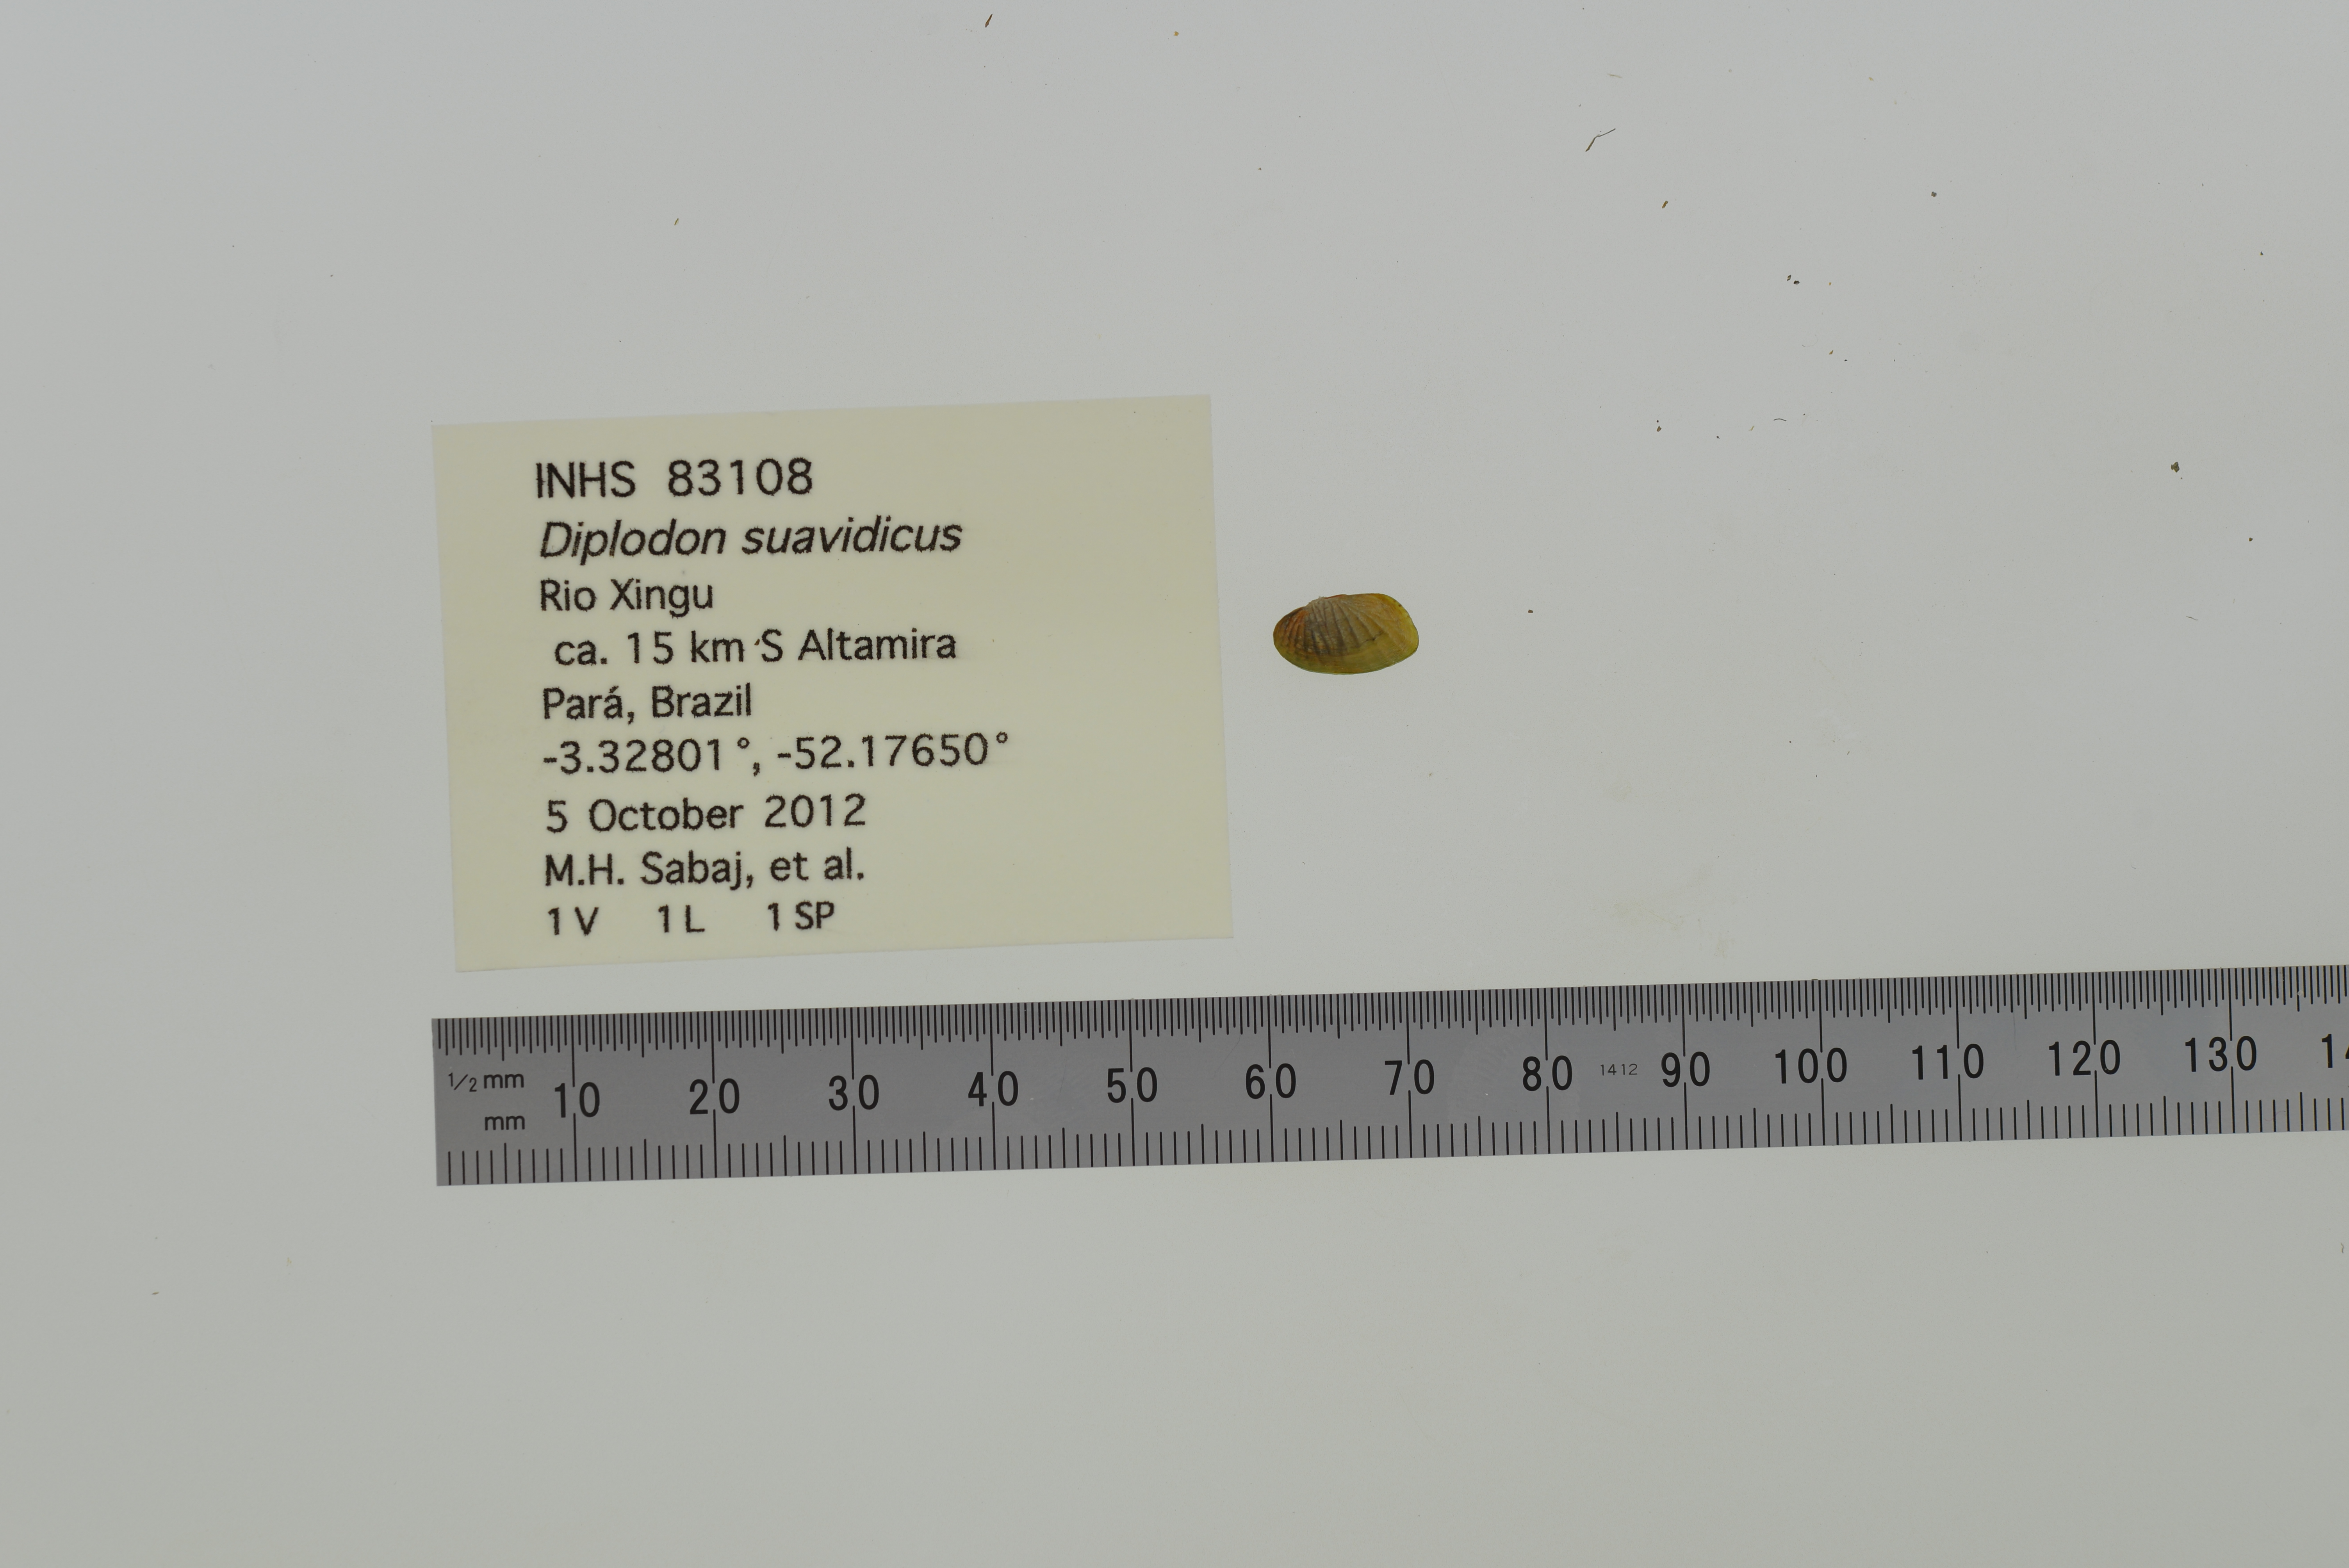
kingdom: Animalia
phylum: Mollusca
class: Bivalvia
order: Unionida
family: Hyriidae
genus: Diplodon
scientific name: Diplodon suavidicus
